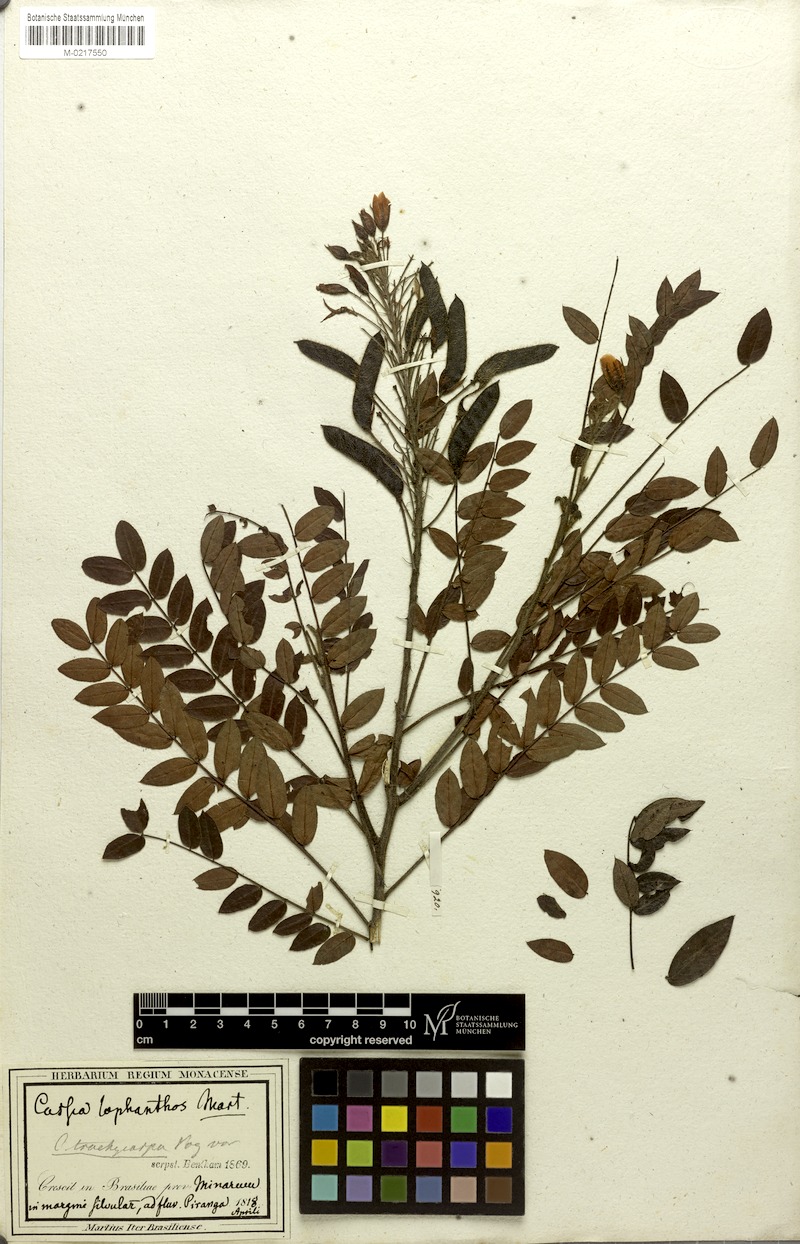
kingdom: Plantae
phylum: Tracheophyta
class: Magnoliopsida
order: Fabales
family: Fabaceae
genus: Chamaecrista
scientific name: Chamaecrista trachycarpa
